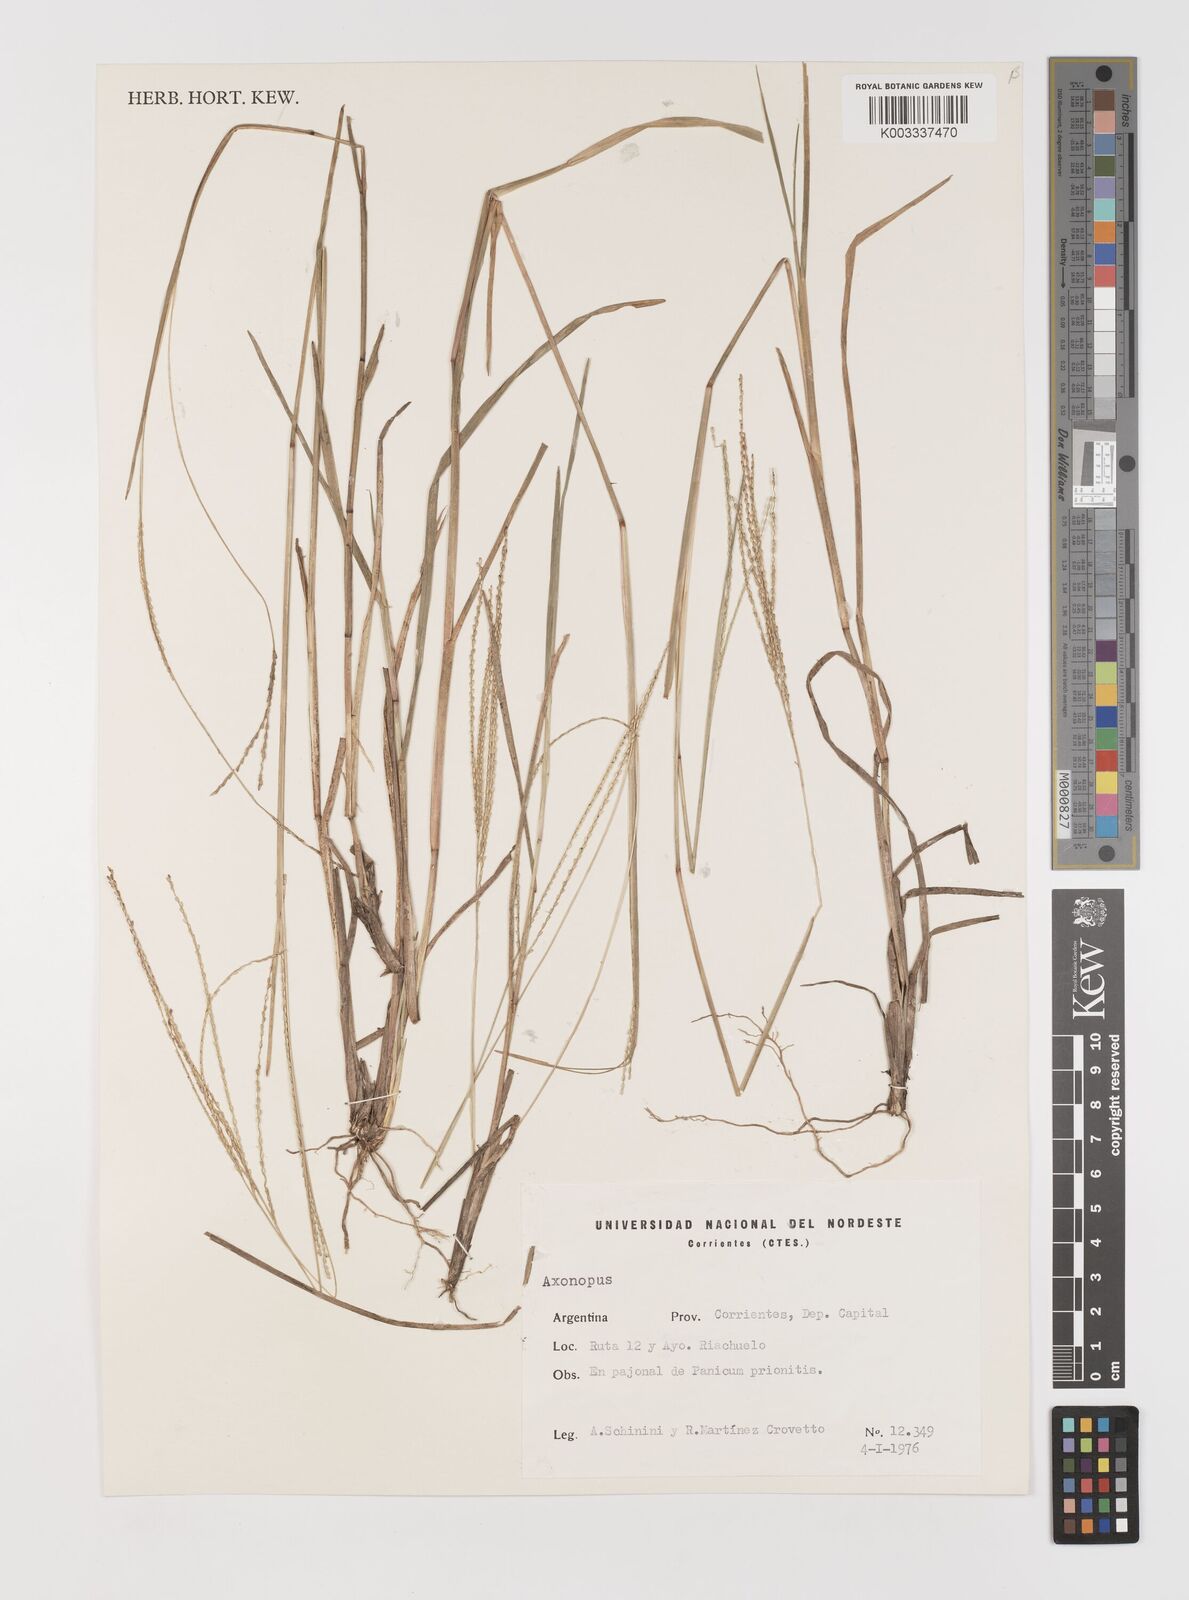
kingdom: Plantae
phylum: Tracheophyta
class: Liliopsida
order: Poales
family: Poaceae
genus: Axonopus
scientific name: Axonopus
